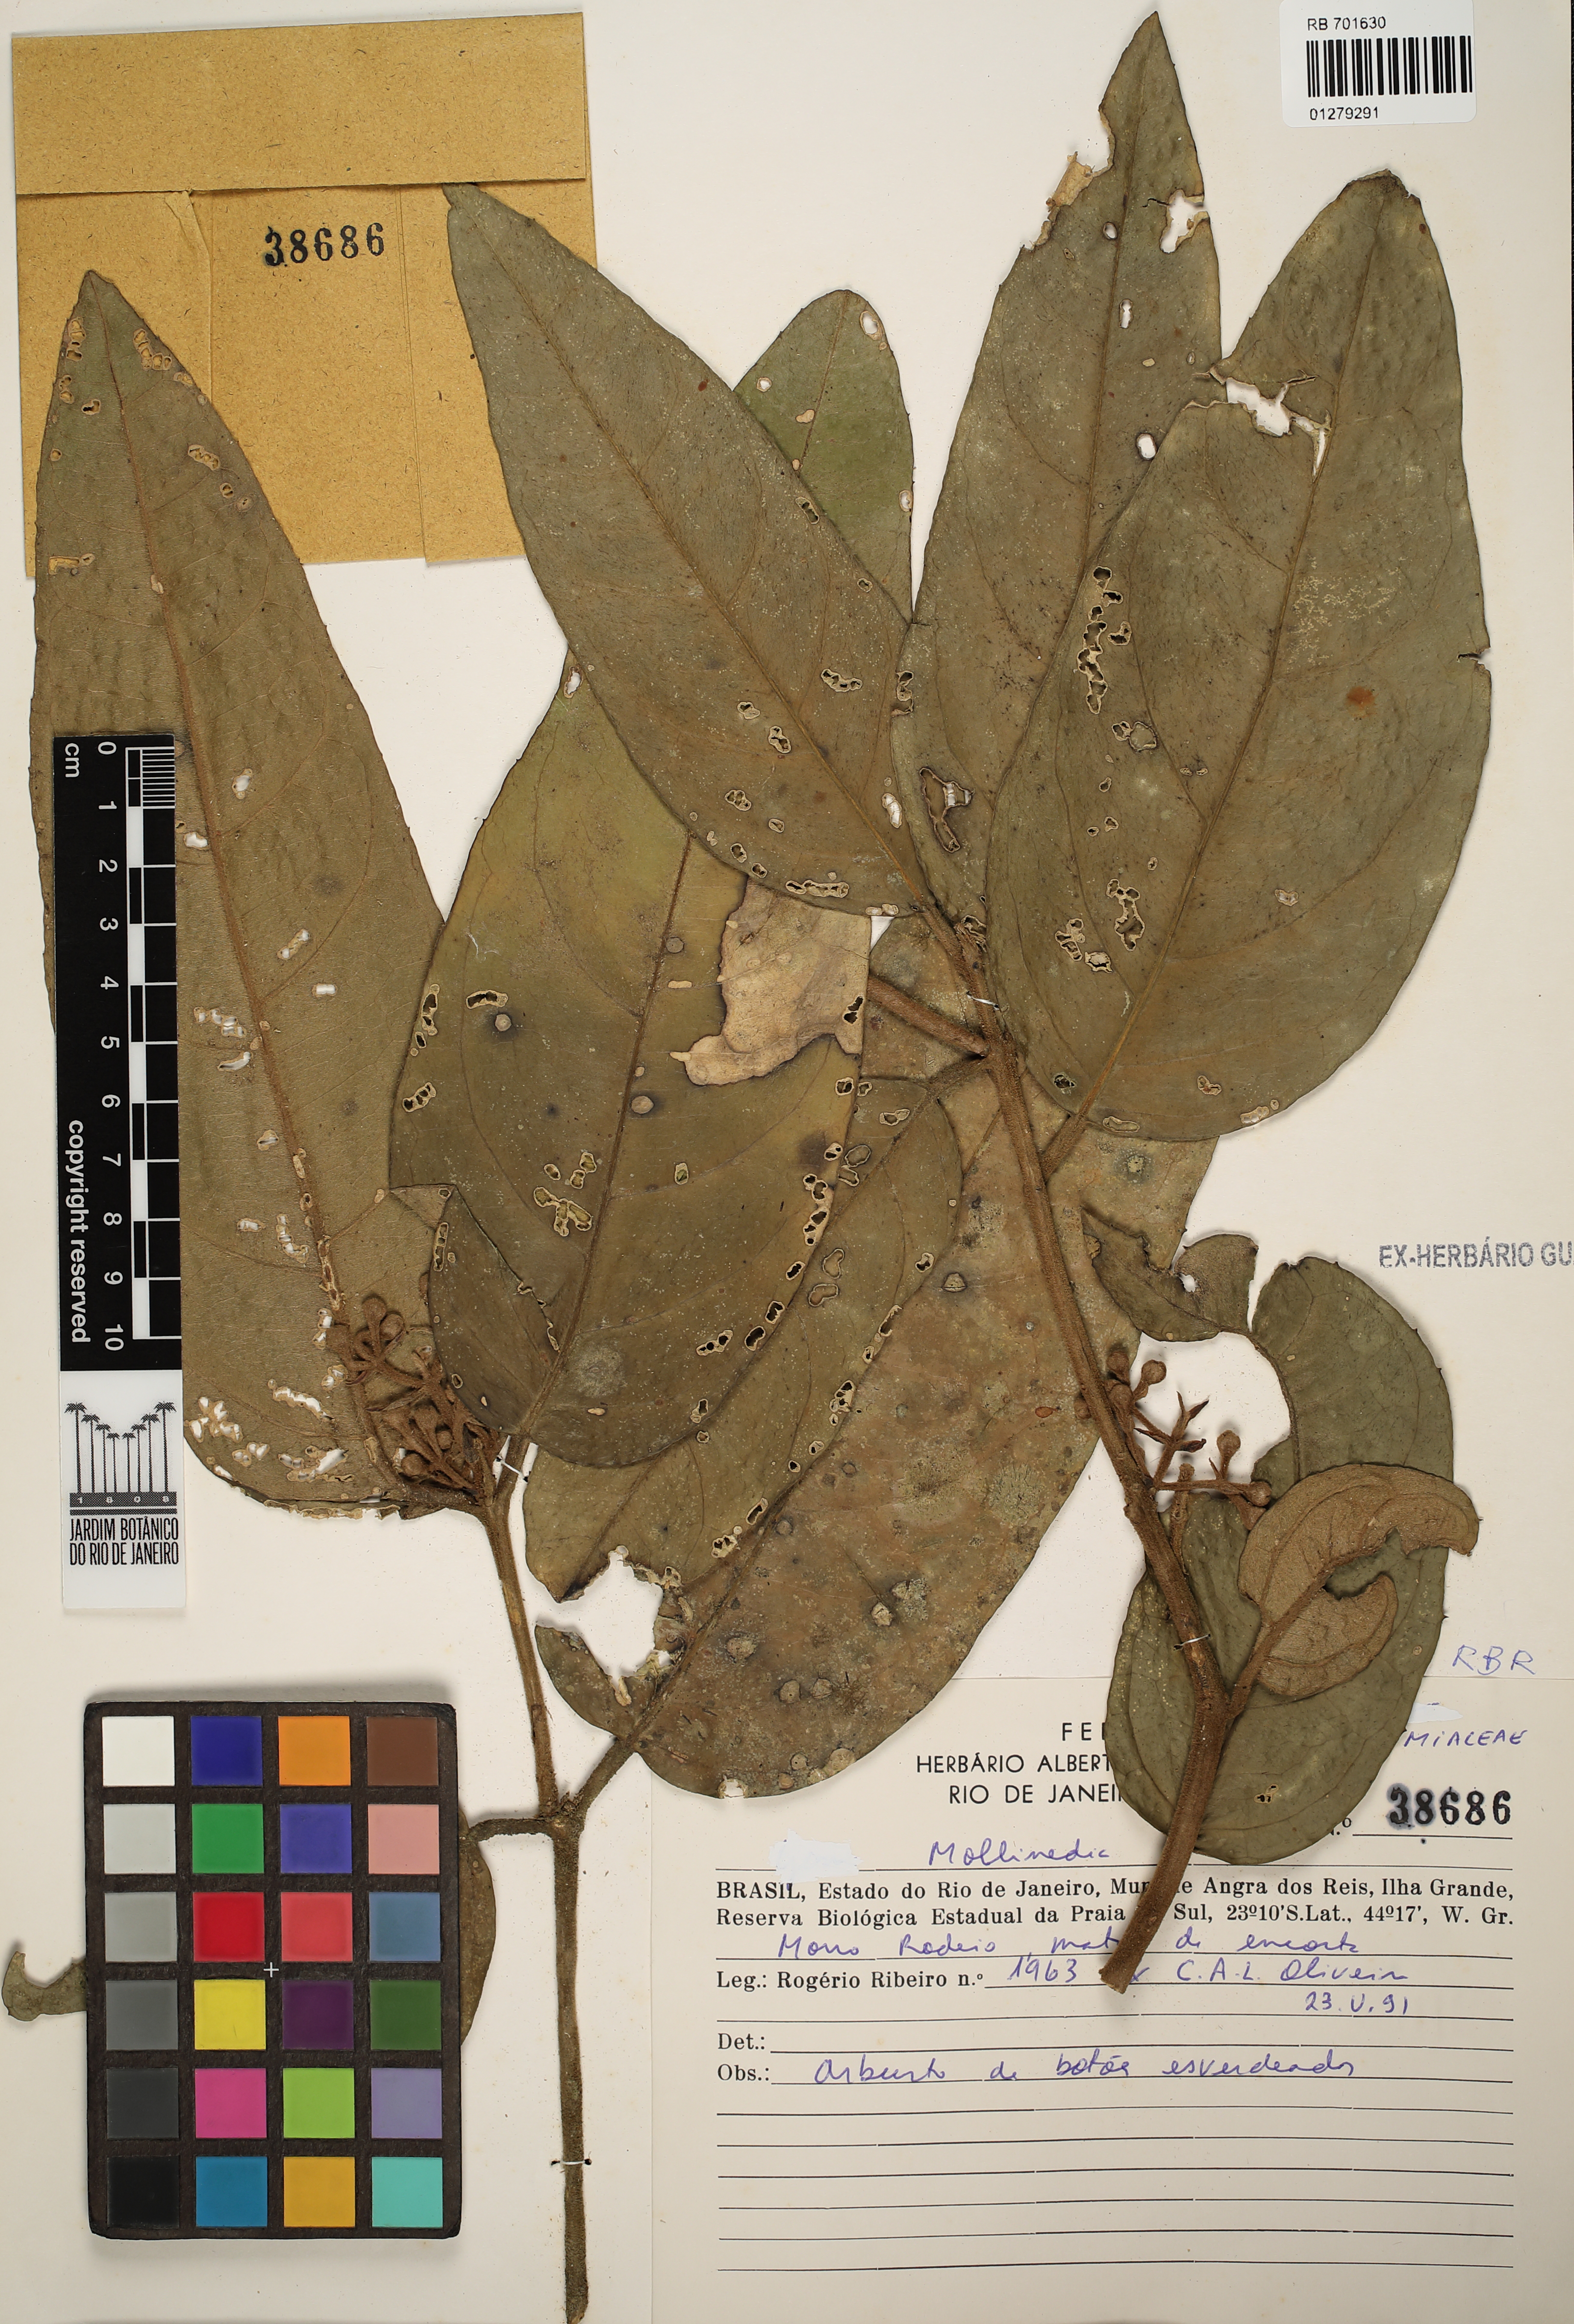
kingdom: Plantae
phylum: Tracheophyta
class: Magnoliopsida
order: Laurales
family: Monimiaceae
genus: Mollinedia
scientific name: Mollinedia
